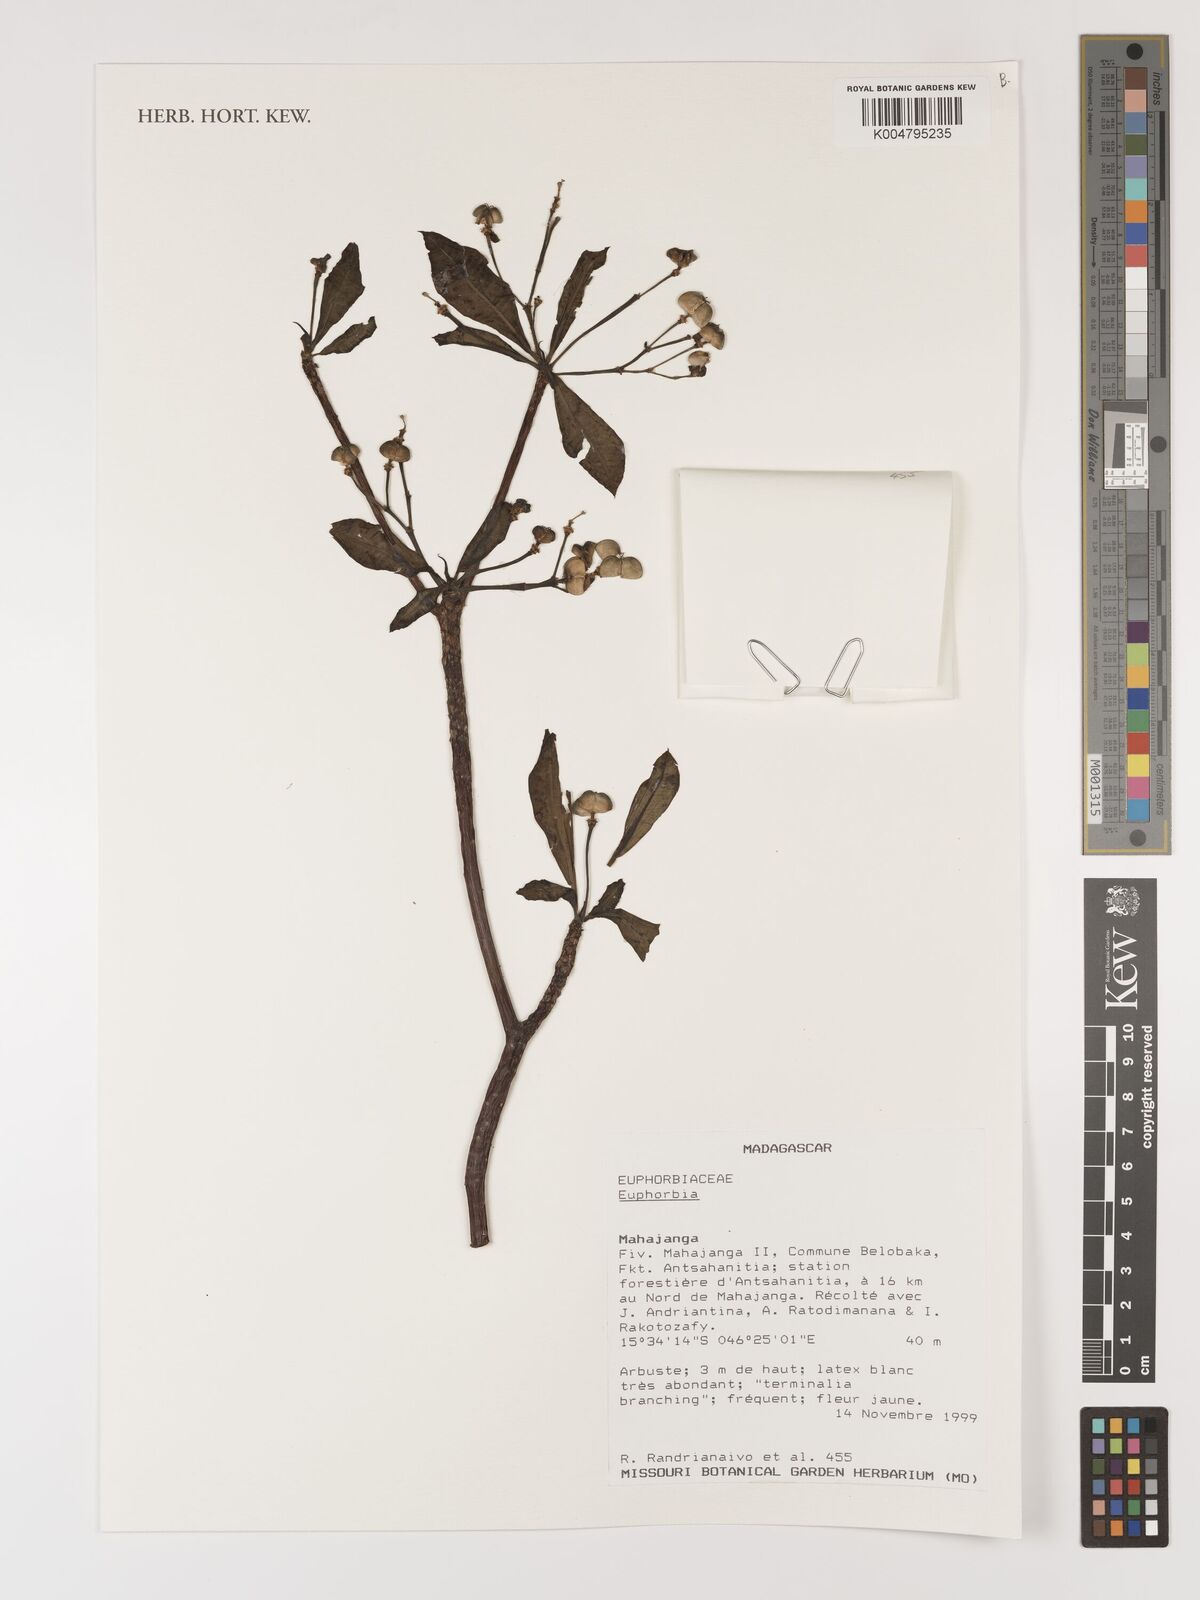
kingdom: Plantae
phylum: Tracheophyta
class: Magnoliopsida
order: Malpighiales
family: Euphorbiaceae
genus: Euphorbia
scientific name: Euphorbia
